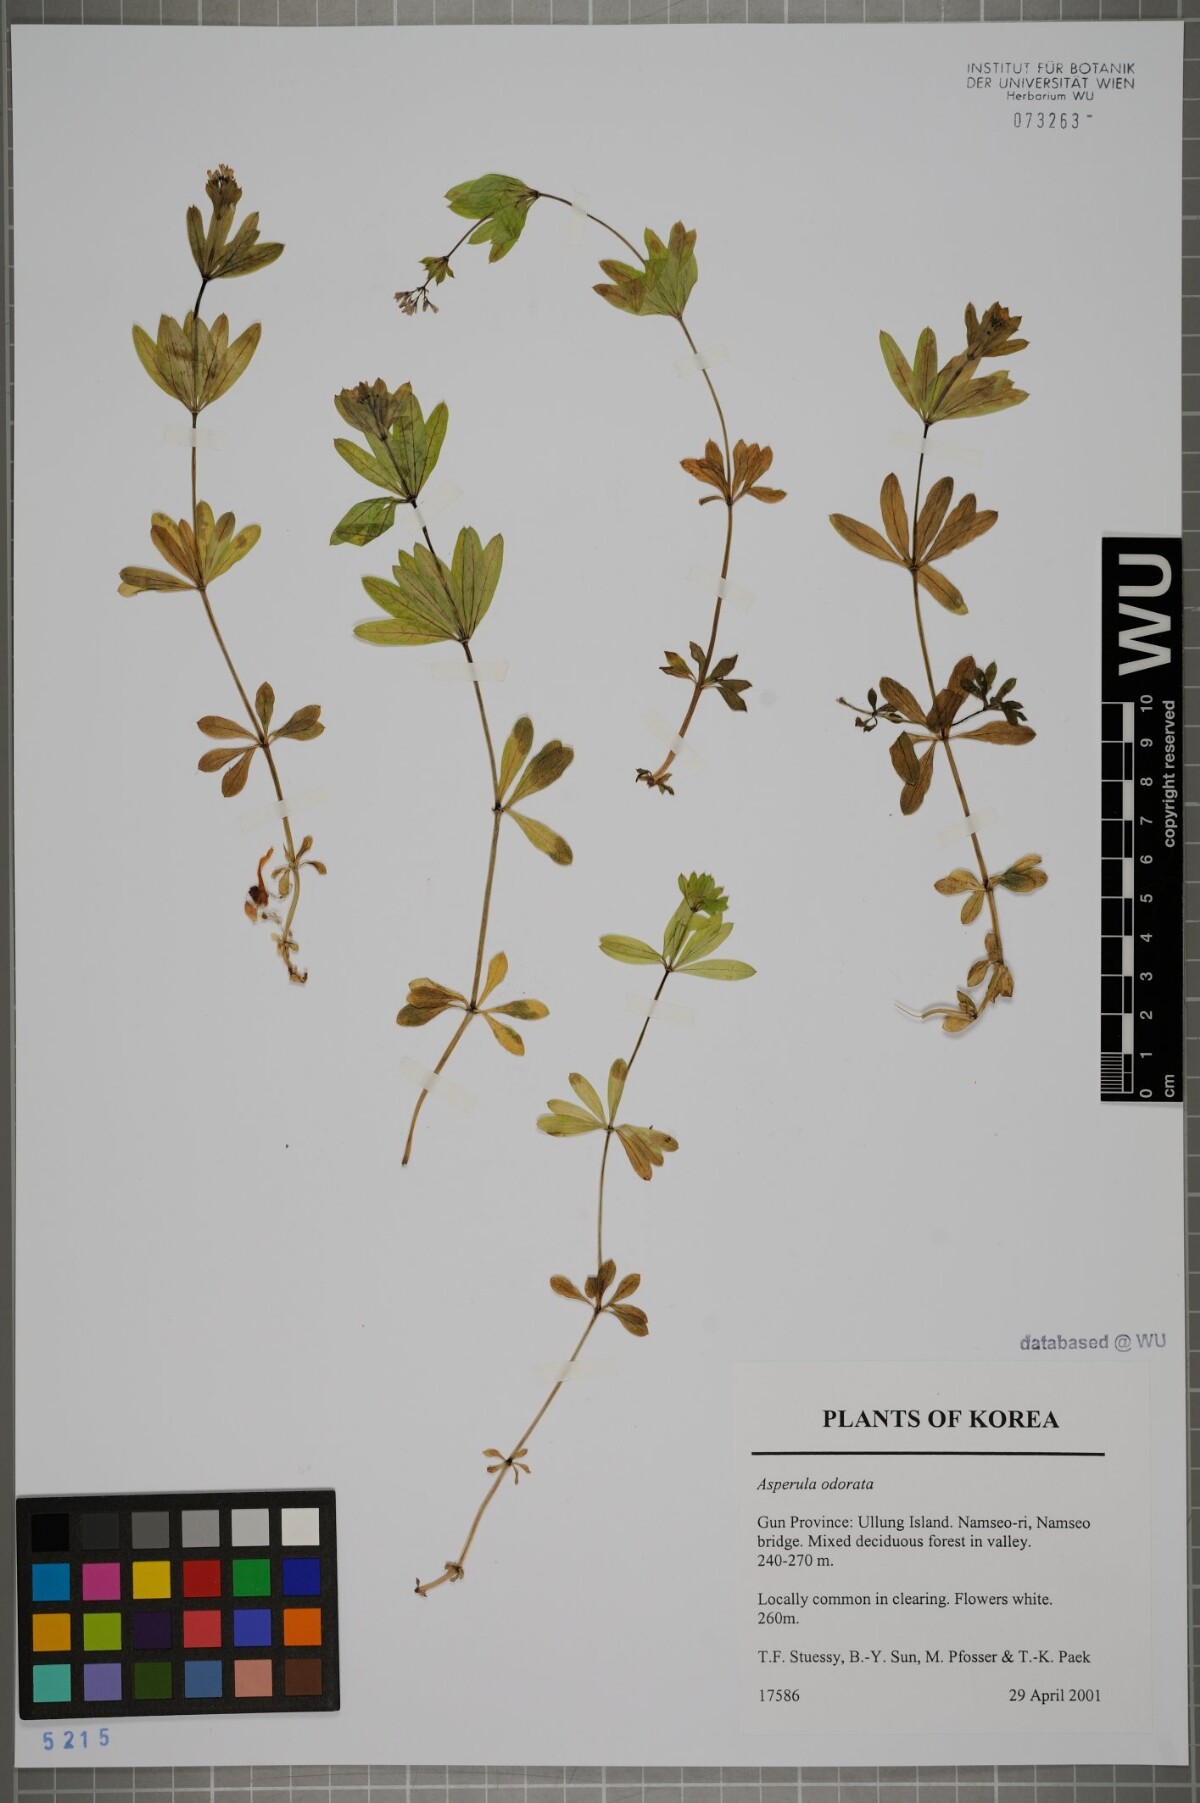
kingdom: Plantae
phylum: Tracheophyta
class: Magnoliopsida
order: Gentianales
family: Rubiaceae
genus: Galium
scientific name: Galium odoratum
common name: Sweet woodruff
